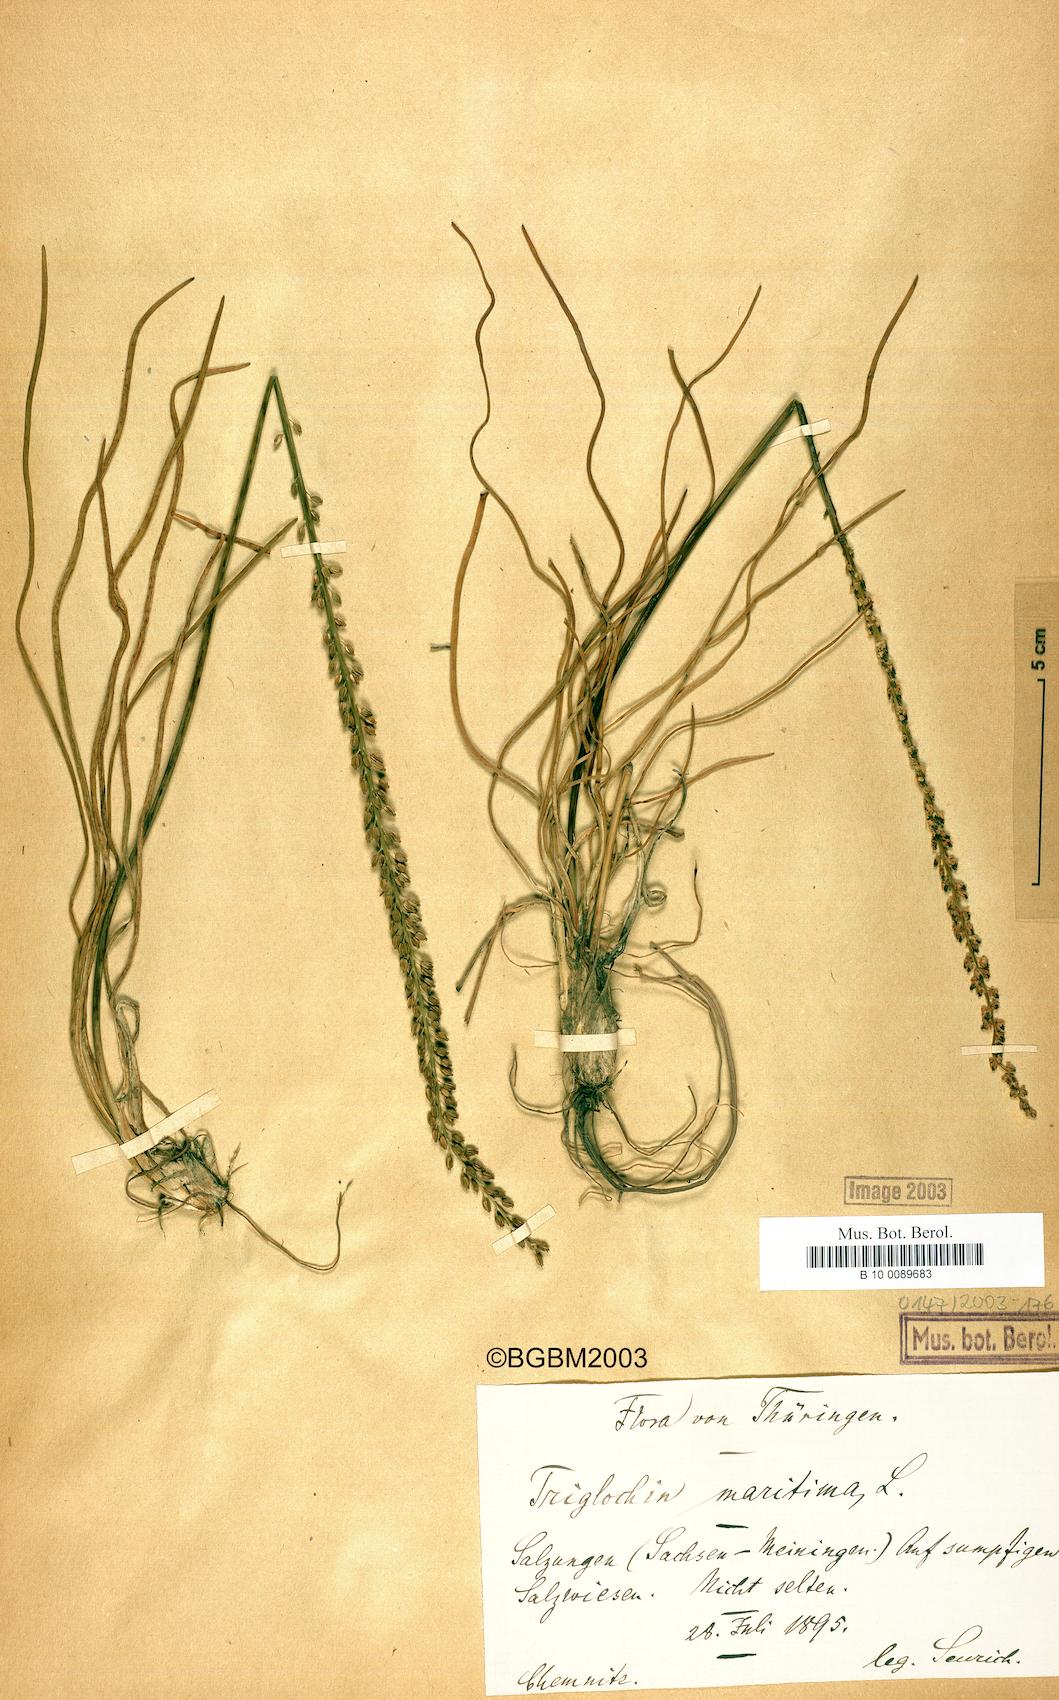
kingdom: Plantae
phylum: Tracheophyta
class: Liliopsida
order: Alismatales
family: Juncaginaceae
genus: Triglochin
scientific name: Triglochin maritima
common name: Sea arrowgrass
